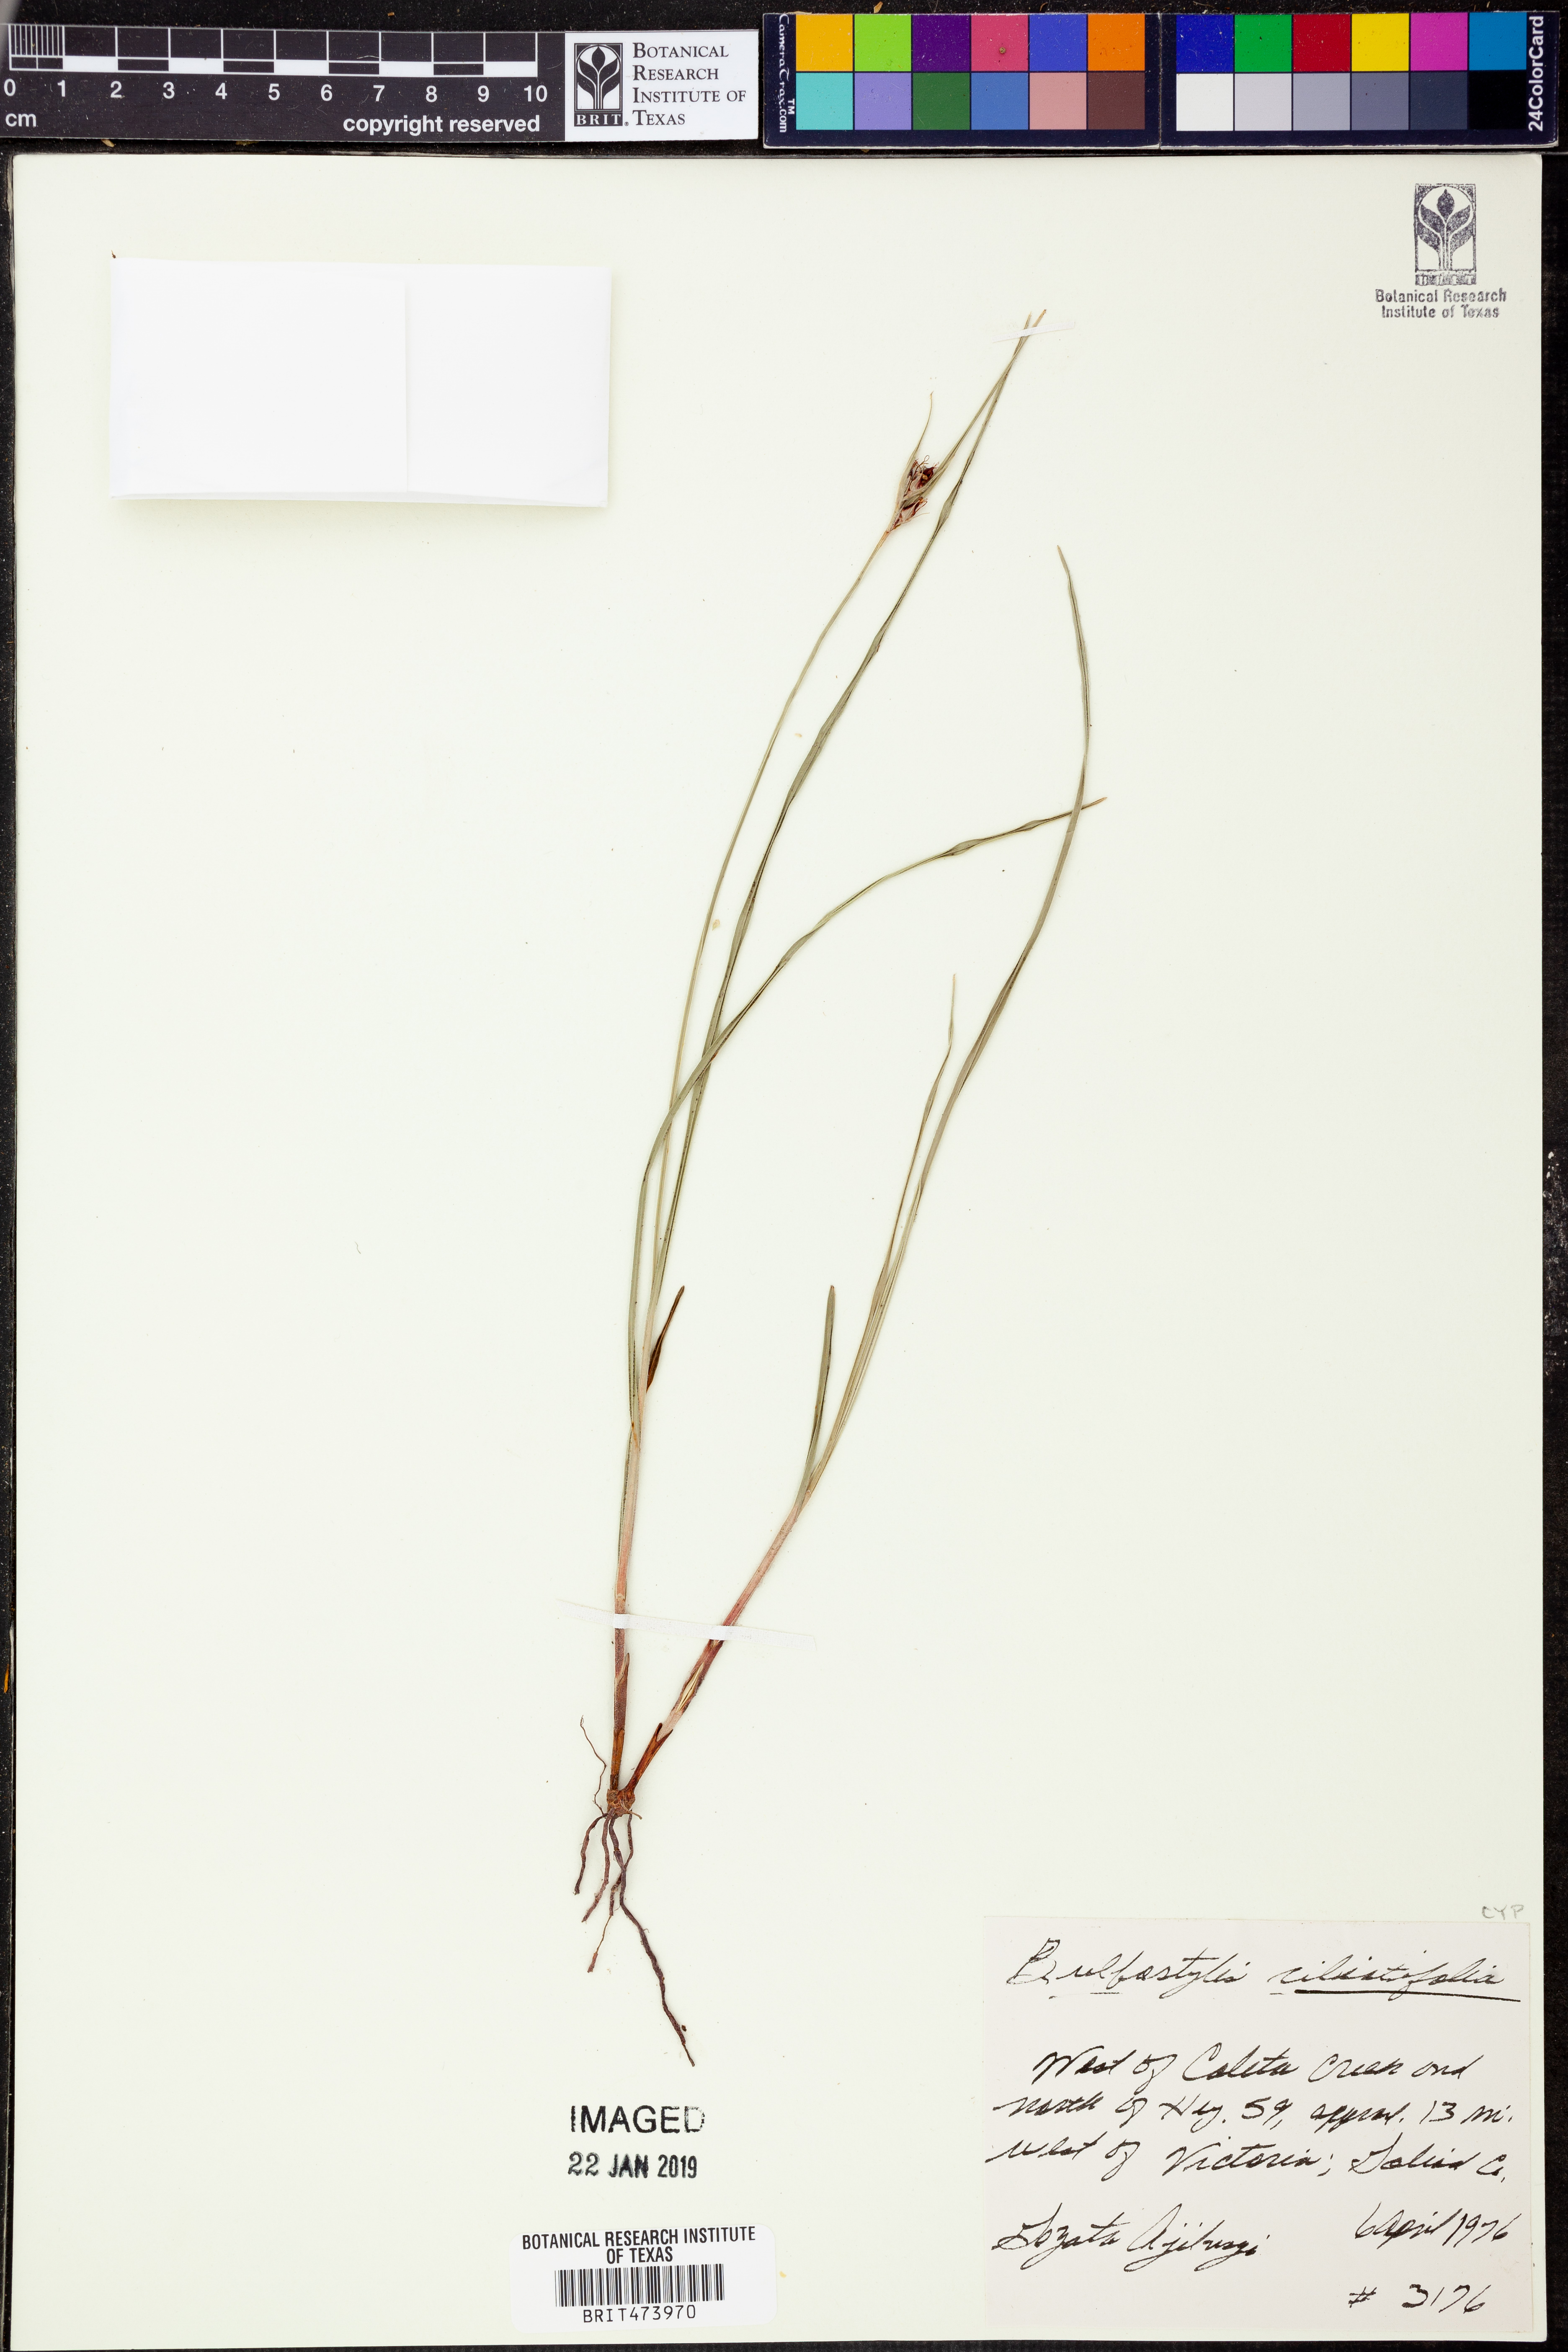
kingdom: Plantae
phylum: Tracheophyta
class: Liliopsida
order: Poales
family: Cyperaceae
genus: Bulbostylis
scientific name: Bulbostylis ciliatifolia
